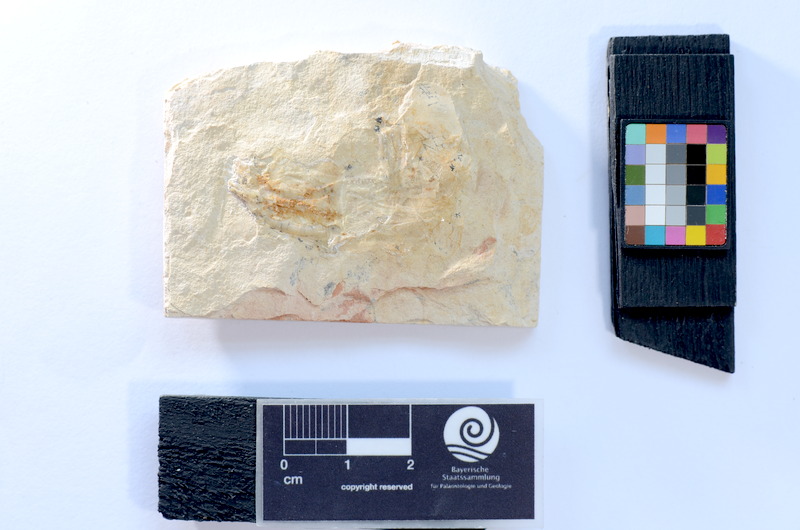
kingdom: Animalia
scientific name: Animalia
